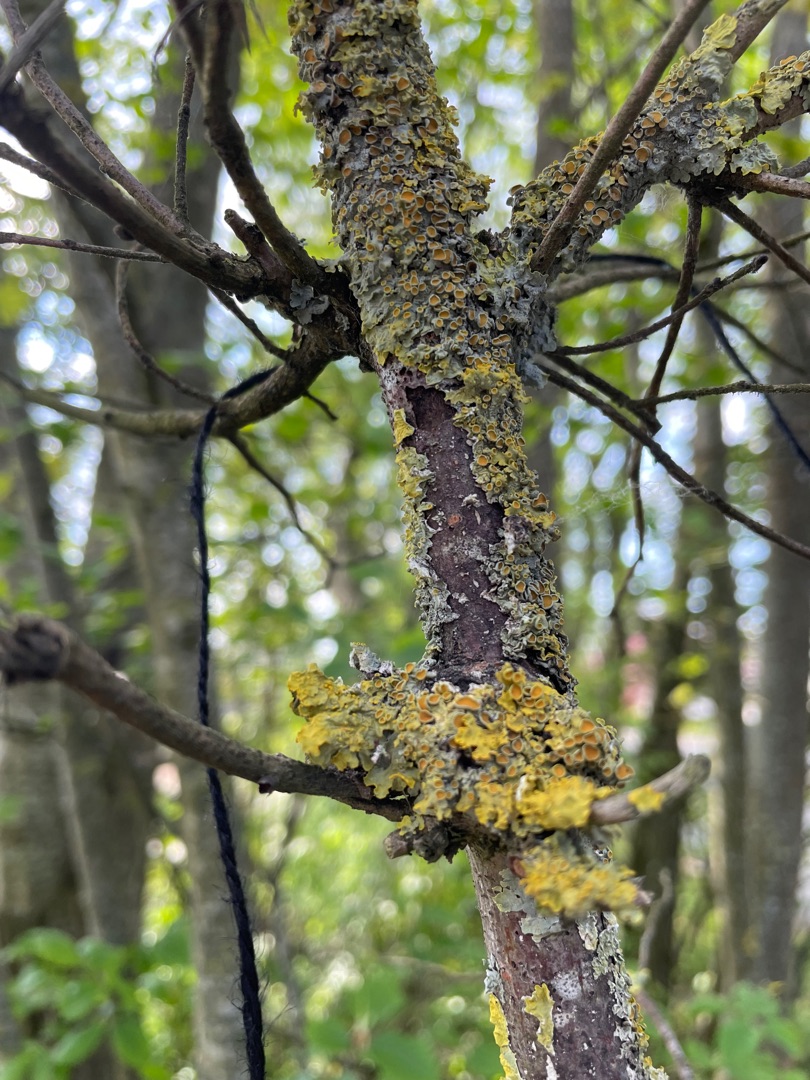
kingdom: Fungi
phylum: Ascomycota
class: Lecanoromycetes
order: Teloschistales
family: Teloschistaceae
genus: Xanthoria
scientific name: Xanthoria parietina
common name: Almindelig væggelav
